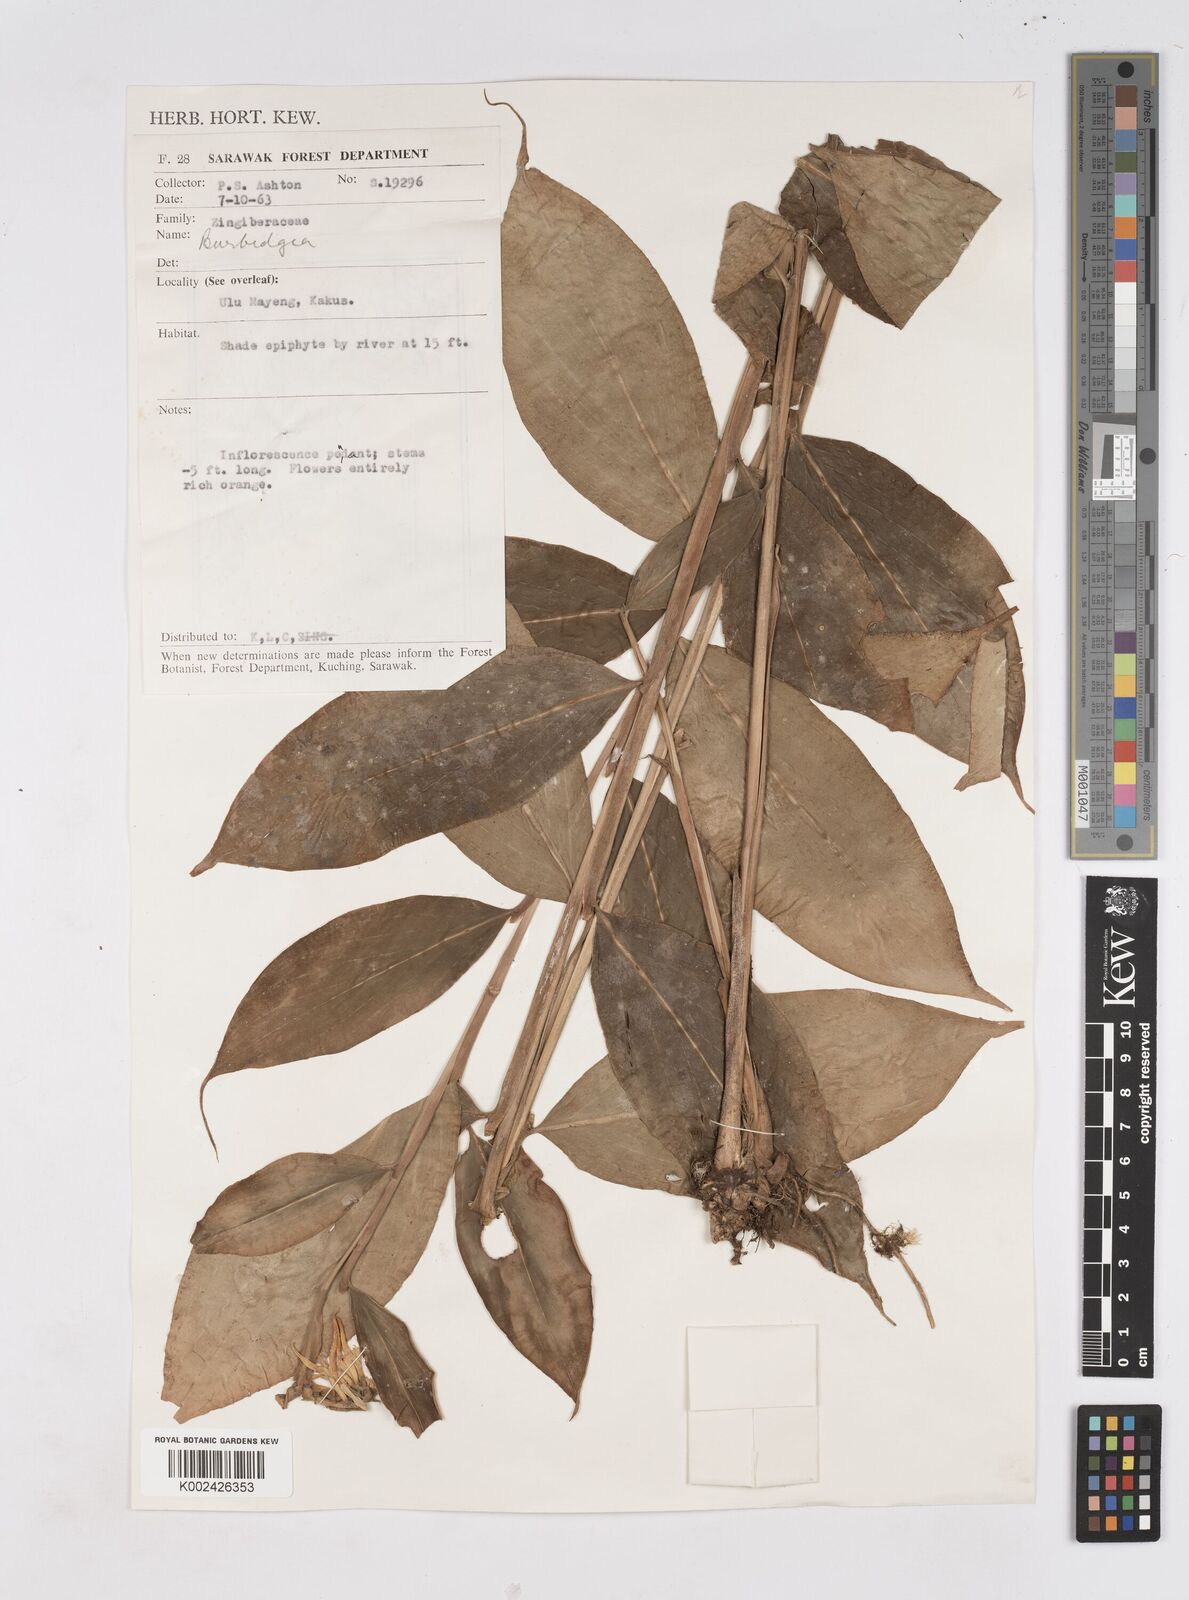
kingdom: Plantae
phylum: Tracheophyta
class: Liliopsida
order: Zingiberales
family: Zingiberaceae
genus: Burbidgea
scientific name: Burbidgea
